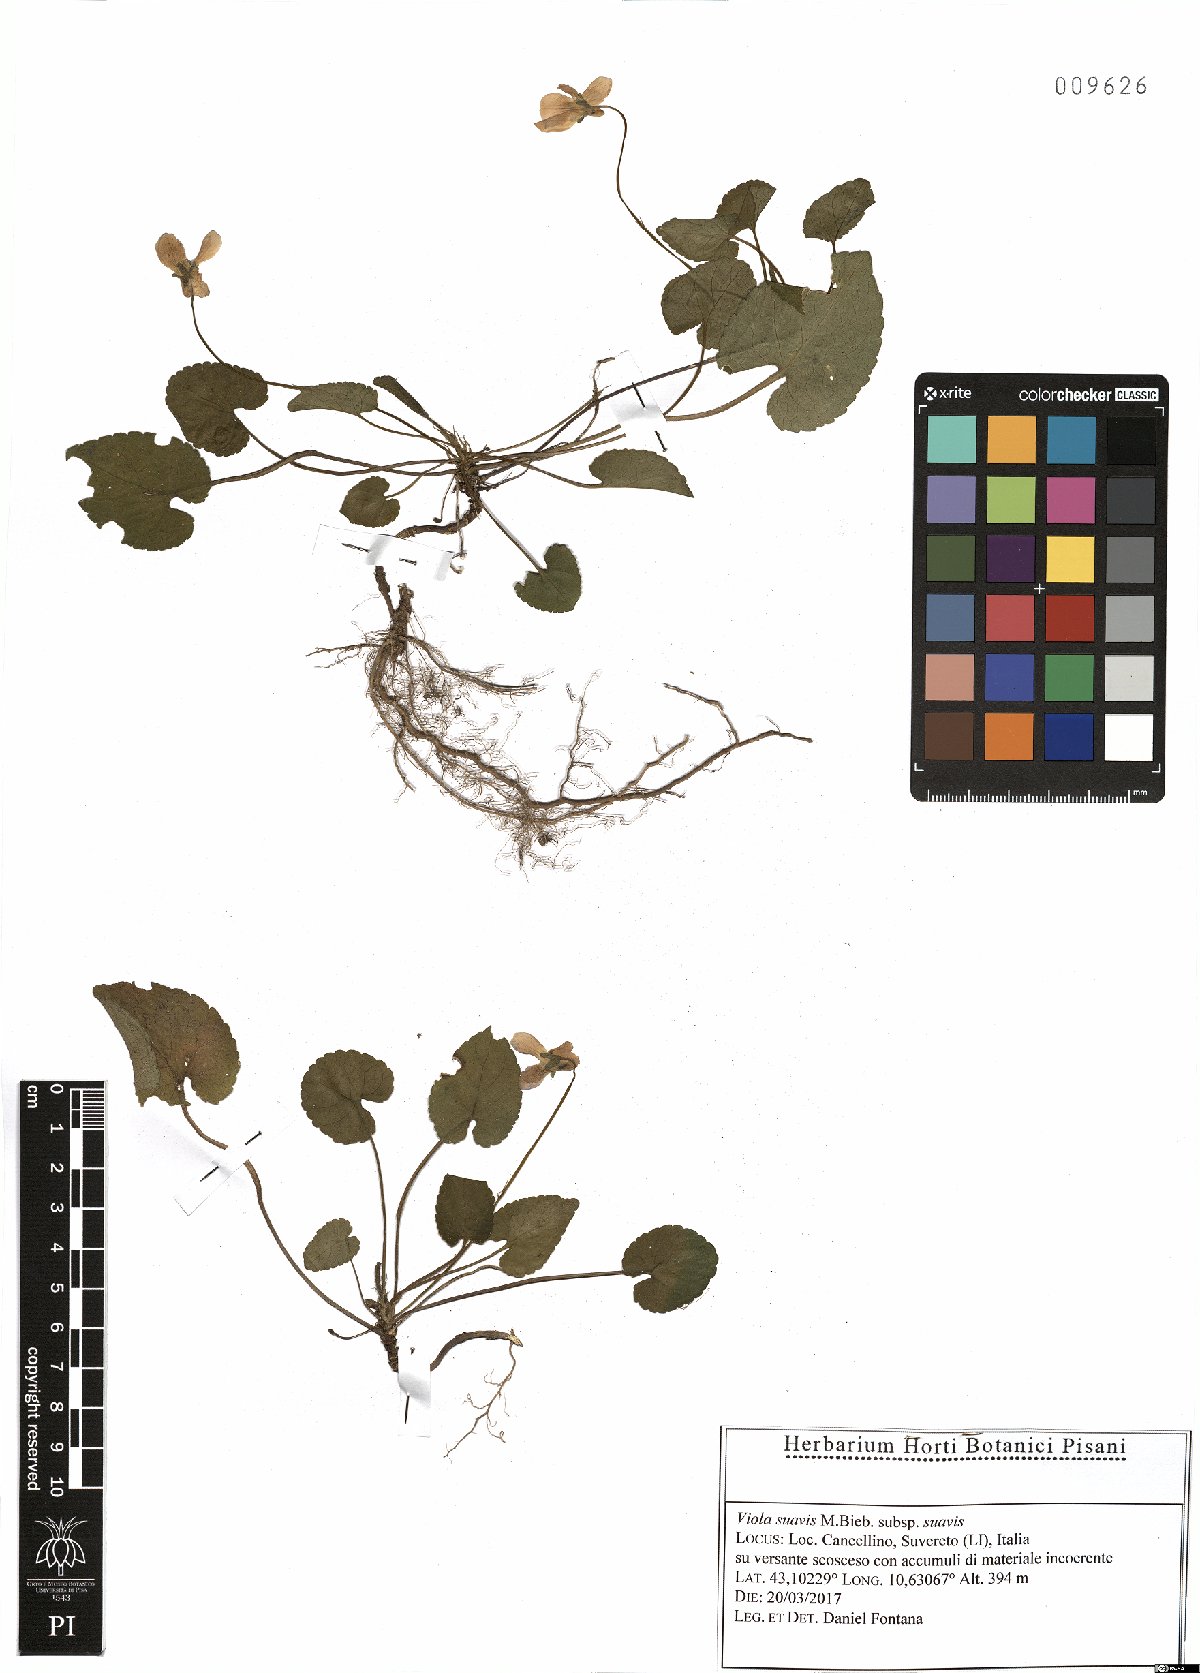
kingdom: Plantae
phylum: Tracheophyta
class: Magnoliopsida
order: Malpighiales
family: Violaceae
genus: Viola
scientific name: Viola suavis
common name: Russian violet
